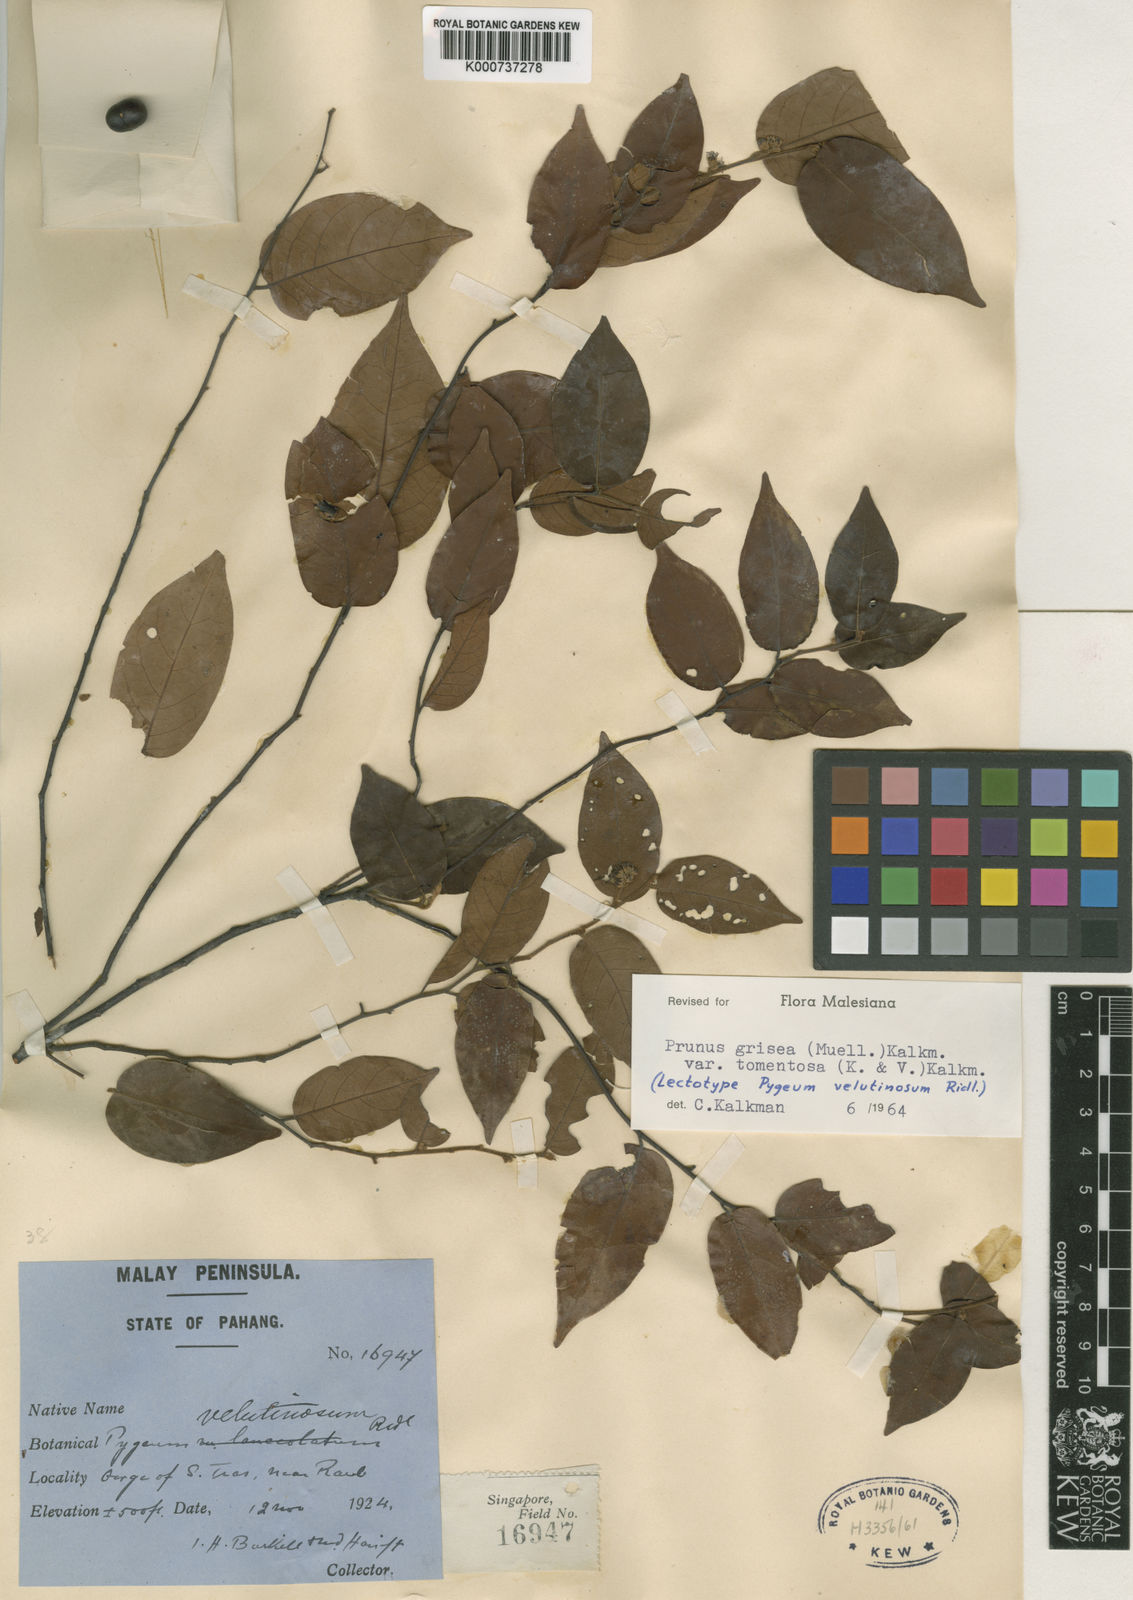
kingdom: Plantae
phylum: Tracheophyta
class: Magnoliopsida
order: Rosales
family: Rosaceae
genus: Prunus
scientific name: Prunus
